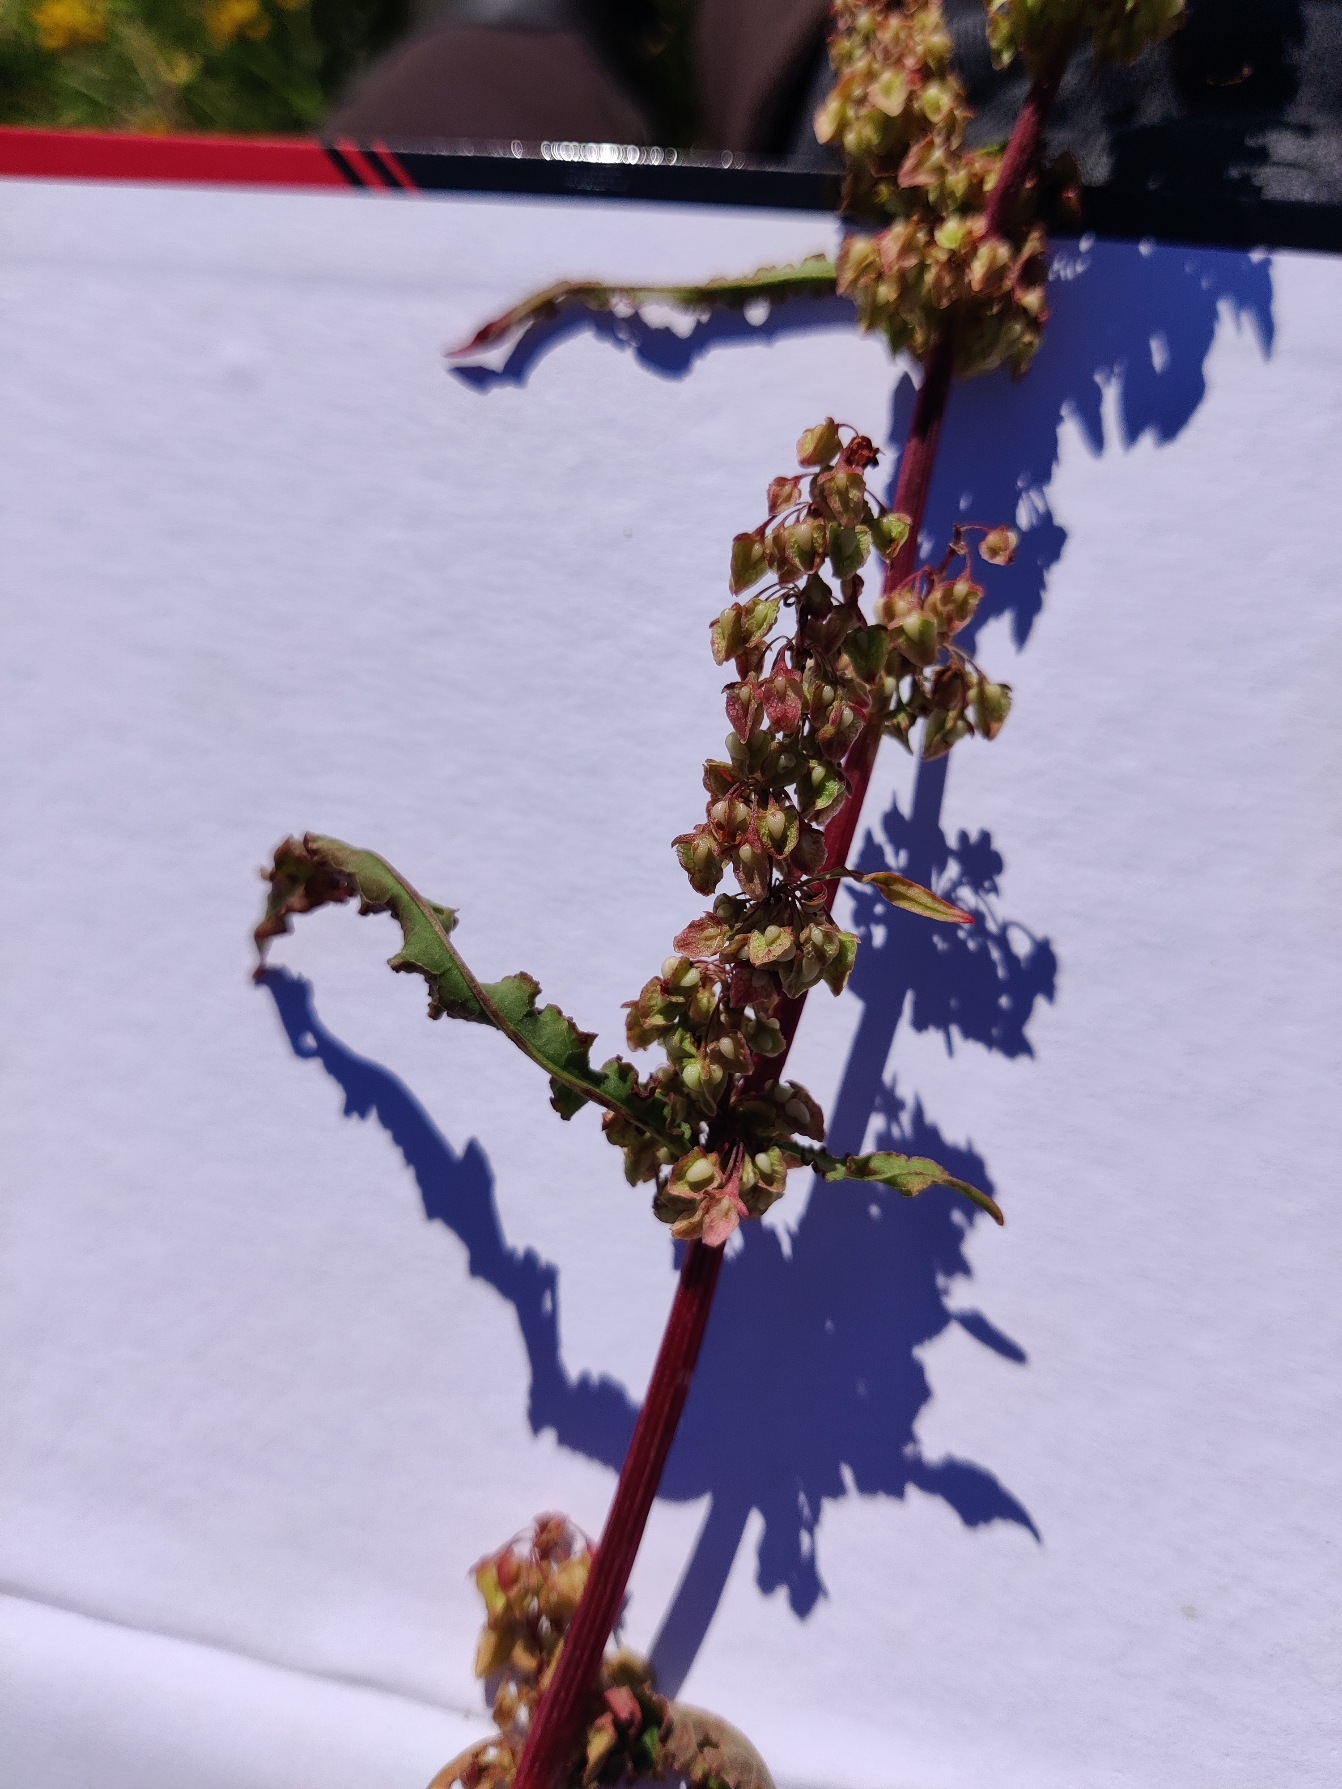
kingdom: Plantae
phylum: Tracheophyta
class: Magnoliopsida
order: Caryophyllales
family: Polygonaceae
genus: Rumex
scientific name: Rumex crispus
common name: Kruset skræppe
